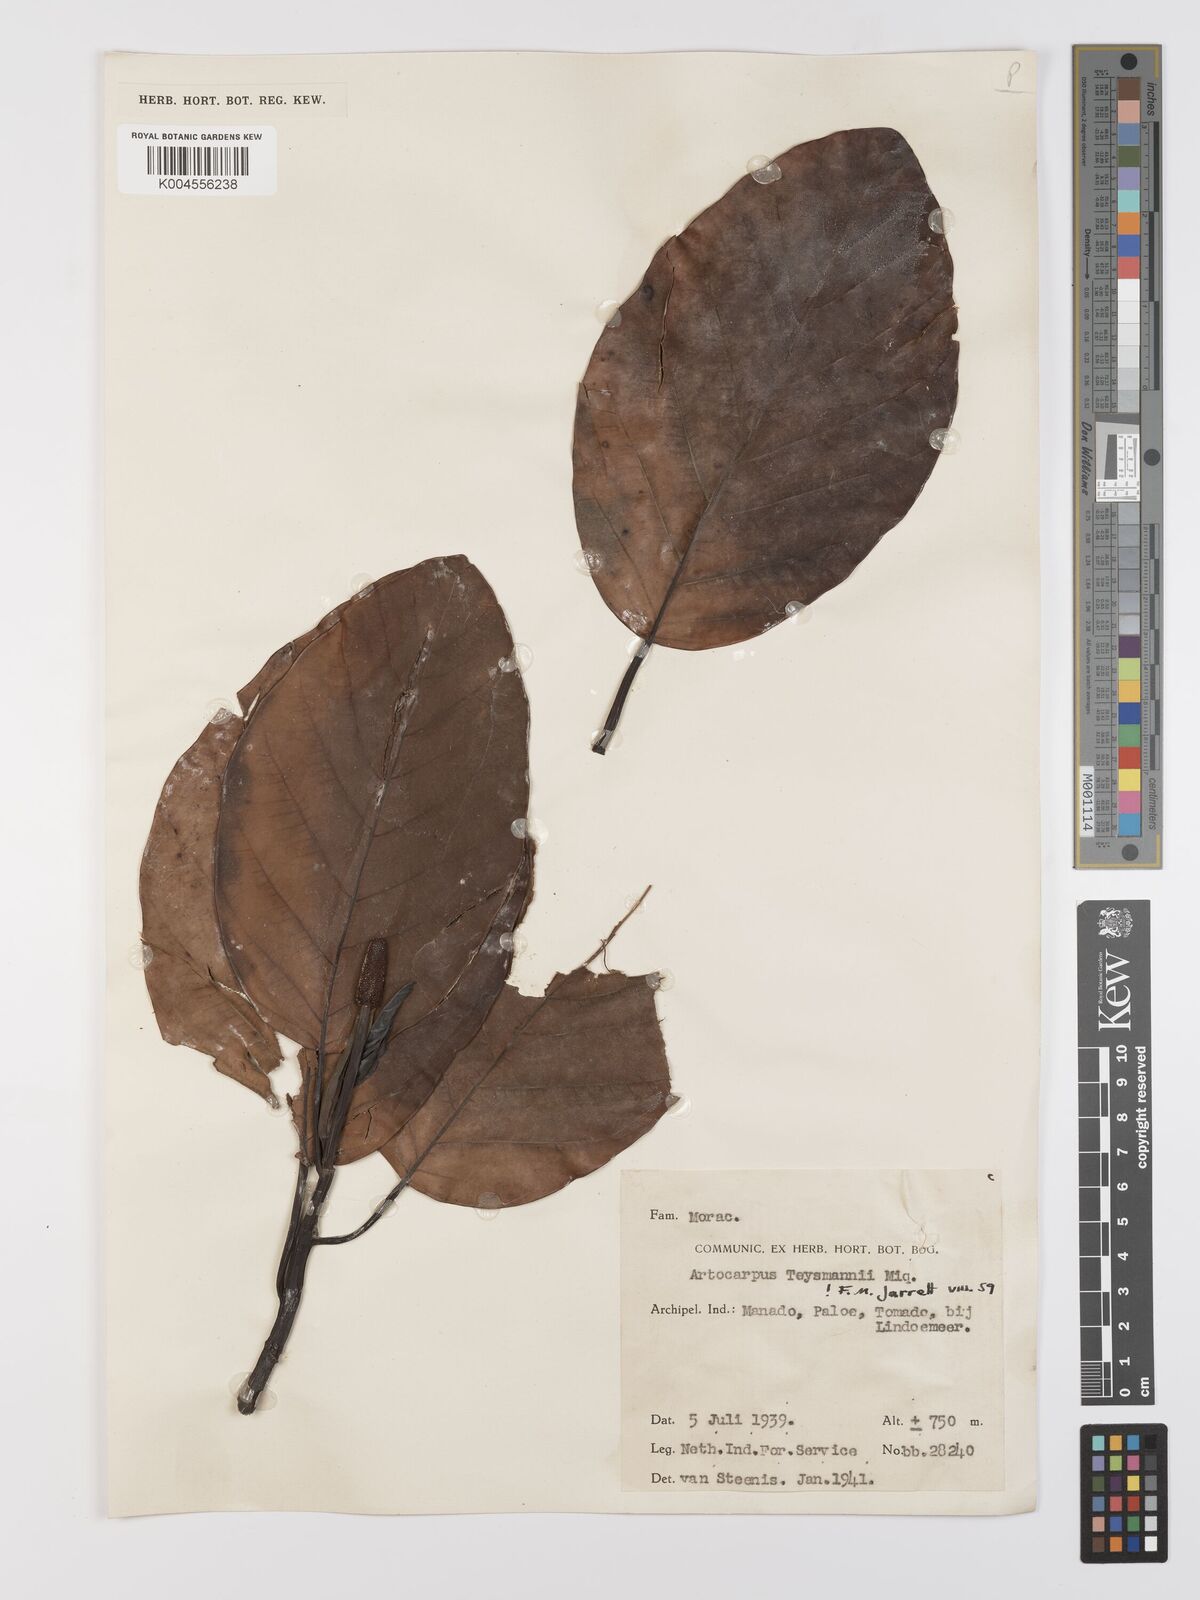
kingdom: Plantae
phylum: Tracheophyta
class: Magnoliopsida
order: Rosales
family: Moraceae
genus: Artocarpus
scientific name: Artocarpus teysmannii
